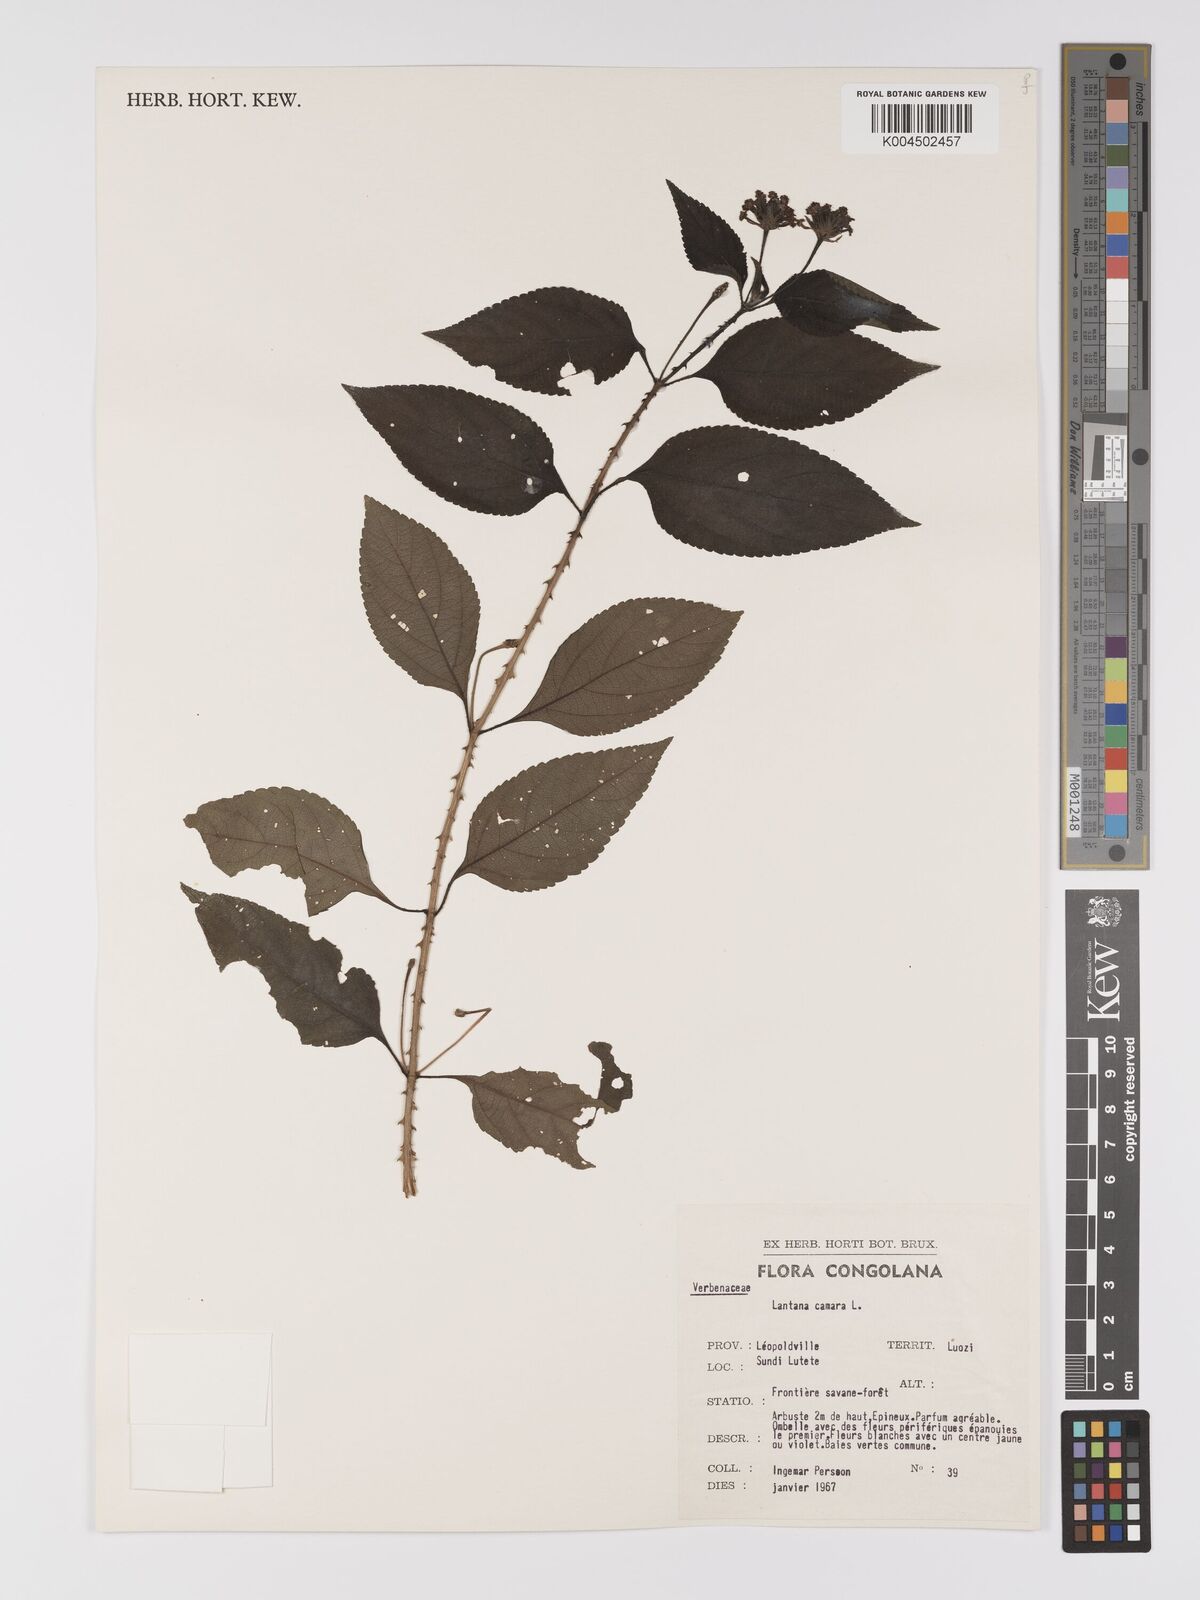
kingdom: Plantae
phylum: Tracheophyta
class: Magnoliopsida
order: Lamiales
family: Verbenaceae
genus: Lantana
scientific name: Lantana camara
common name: Lantana
